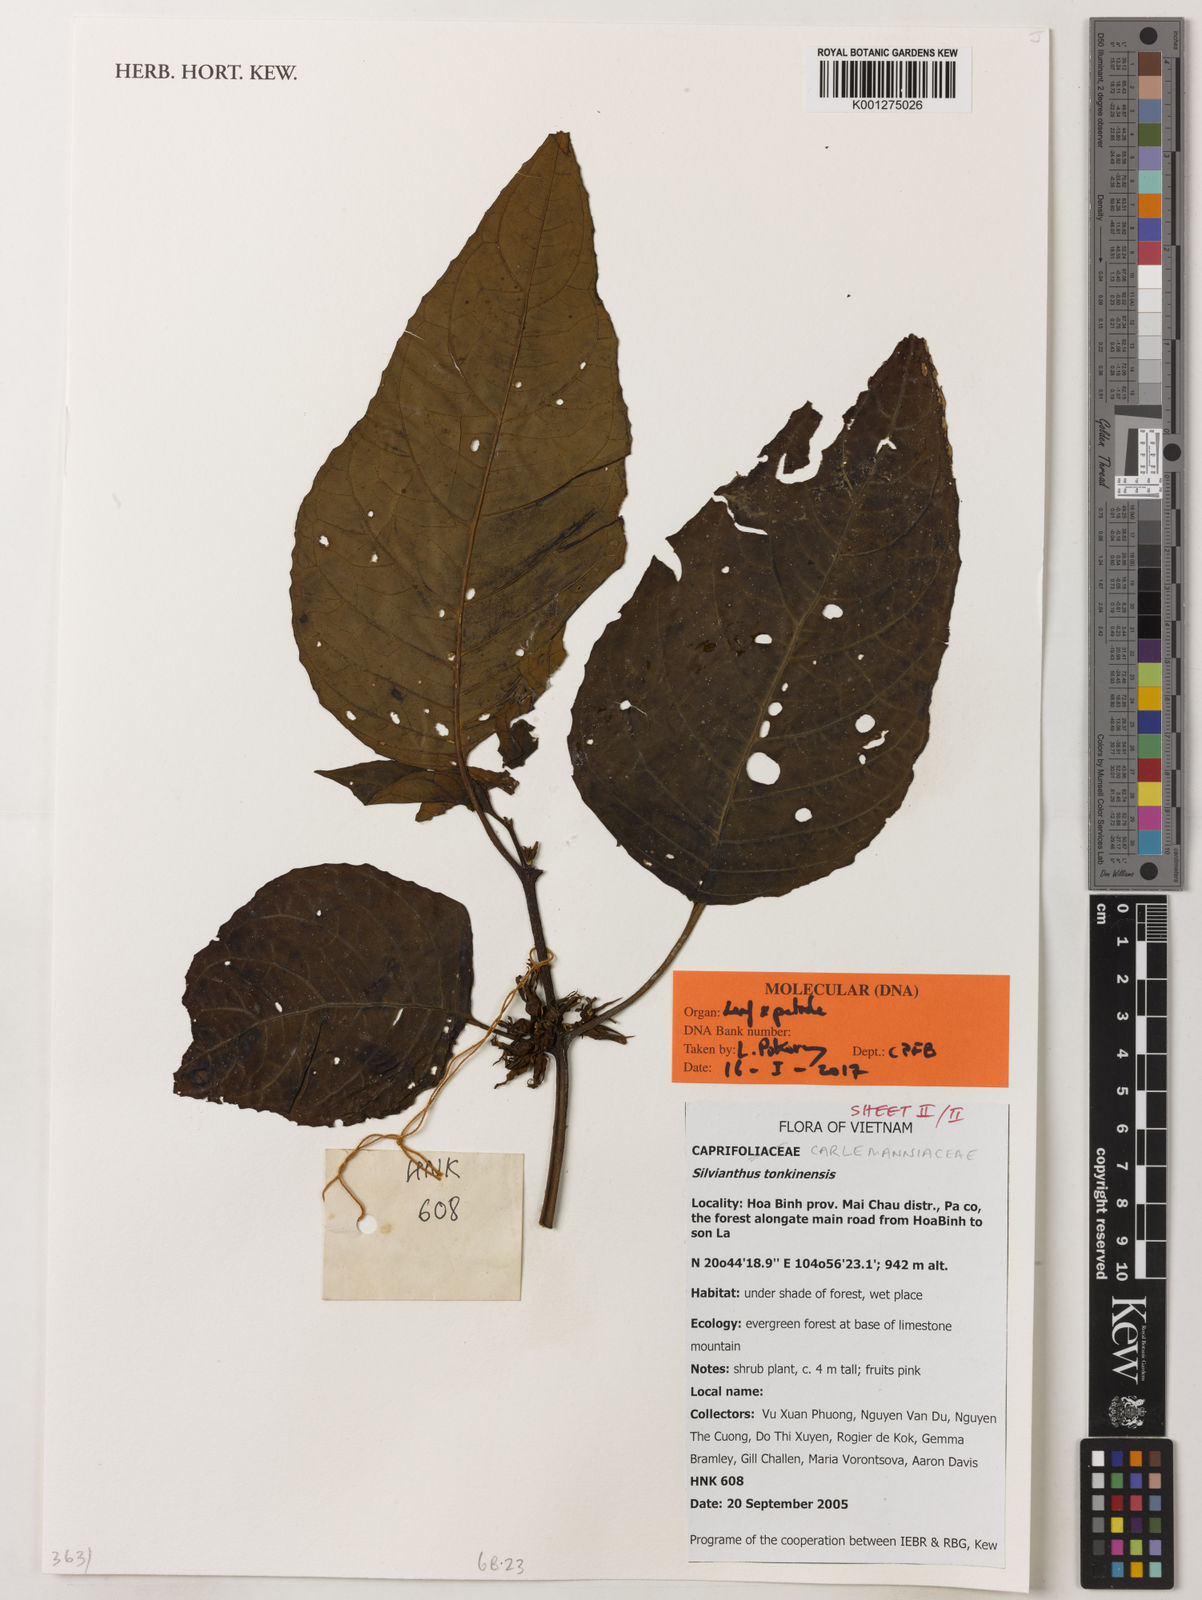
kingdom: Plantae
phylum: Tracheophyta
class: Magnoliopsida
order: Lamiales
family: Carlemanniaceae
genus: Silvianthus
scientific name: Silvianthus tonkinensis
